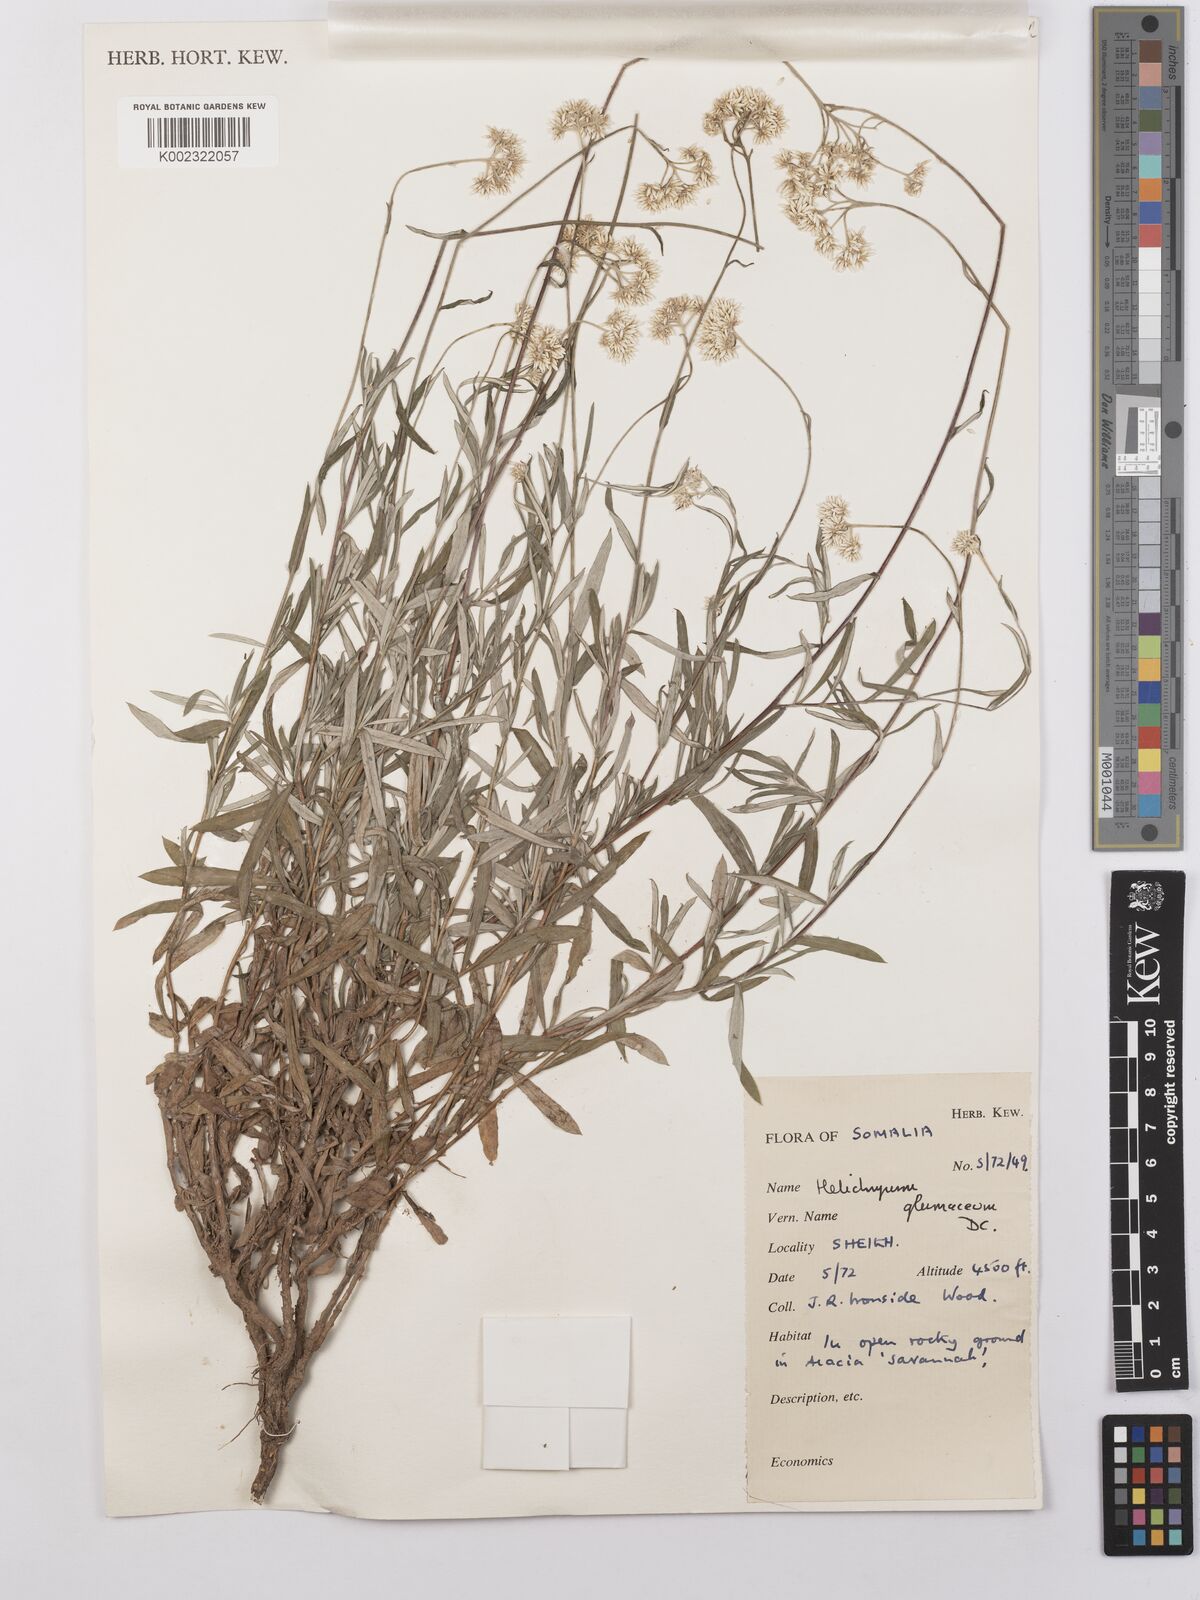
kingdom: Plantae
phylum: Tracheophyta
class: Magnoliopsida
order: Asterales
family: Asteraceae
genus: Helichrysum
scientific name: Helichrysum glumaceum
